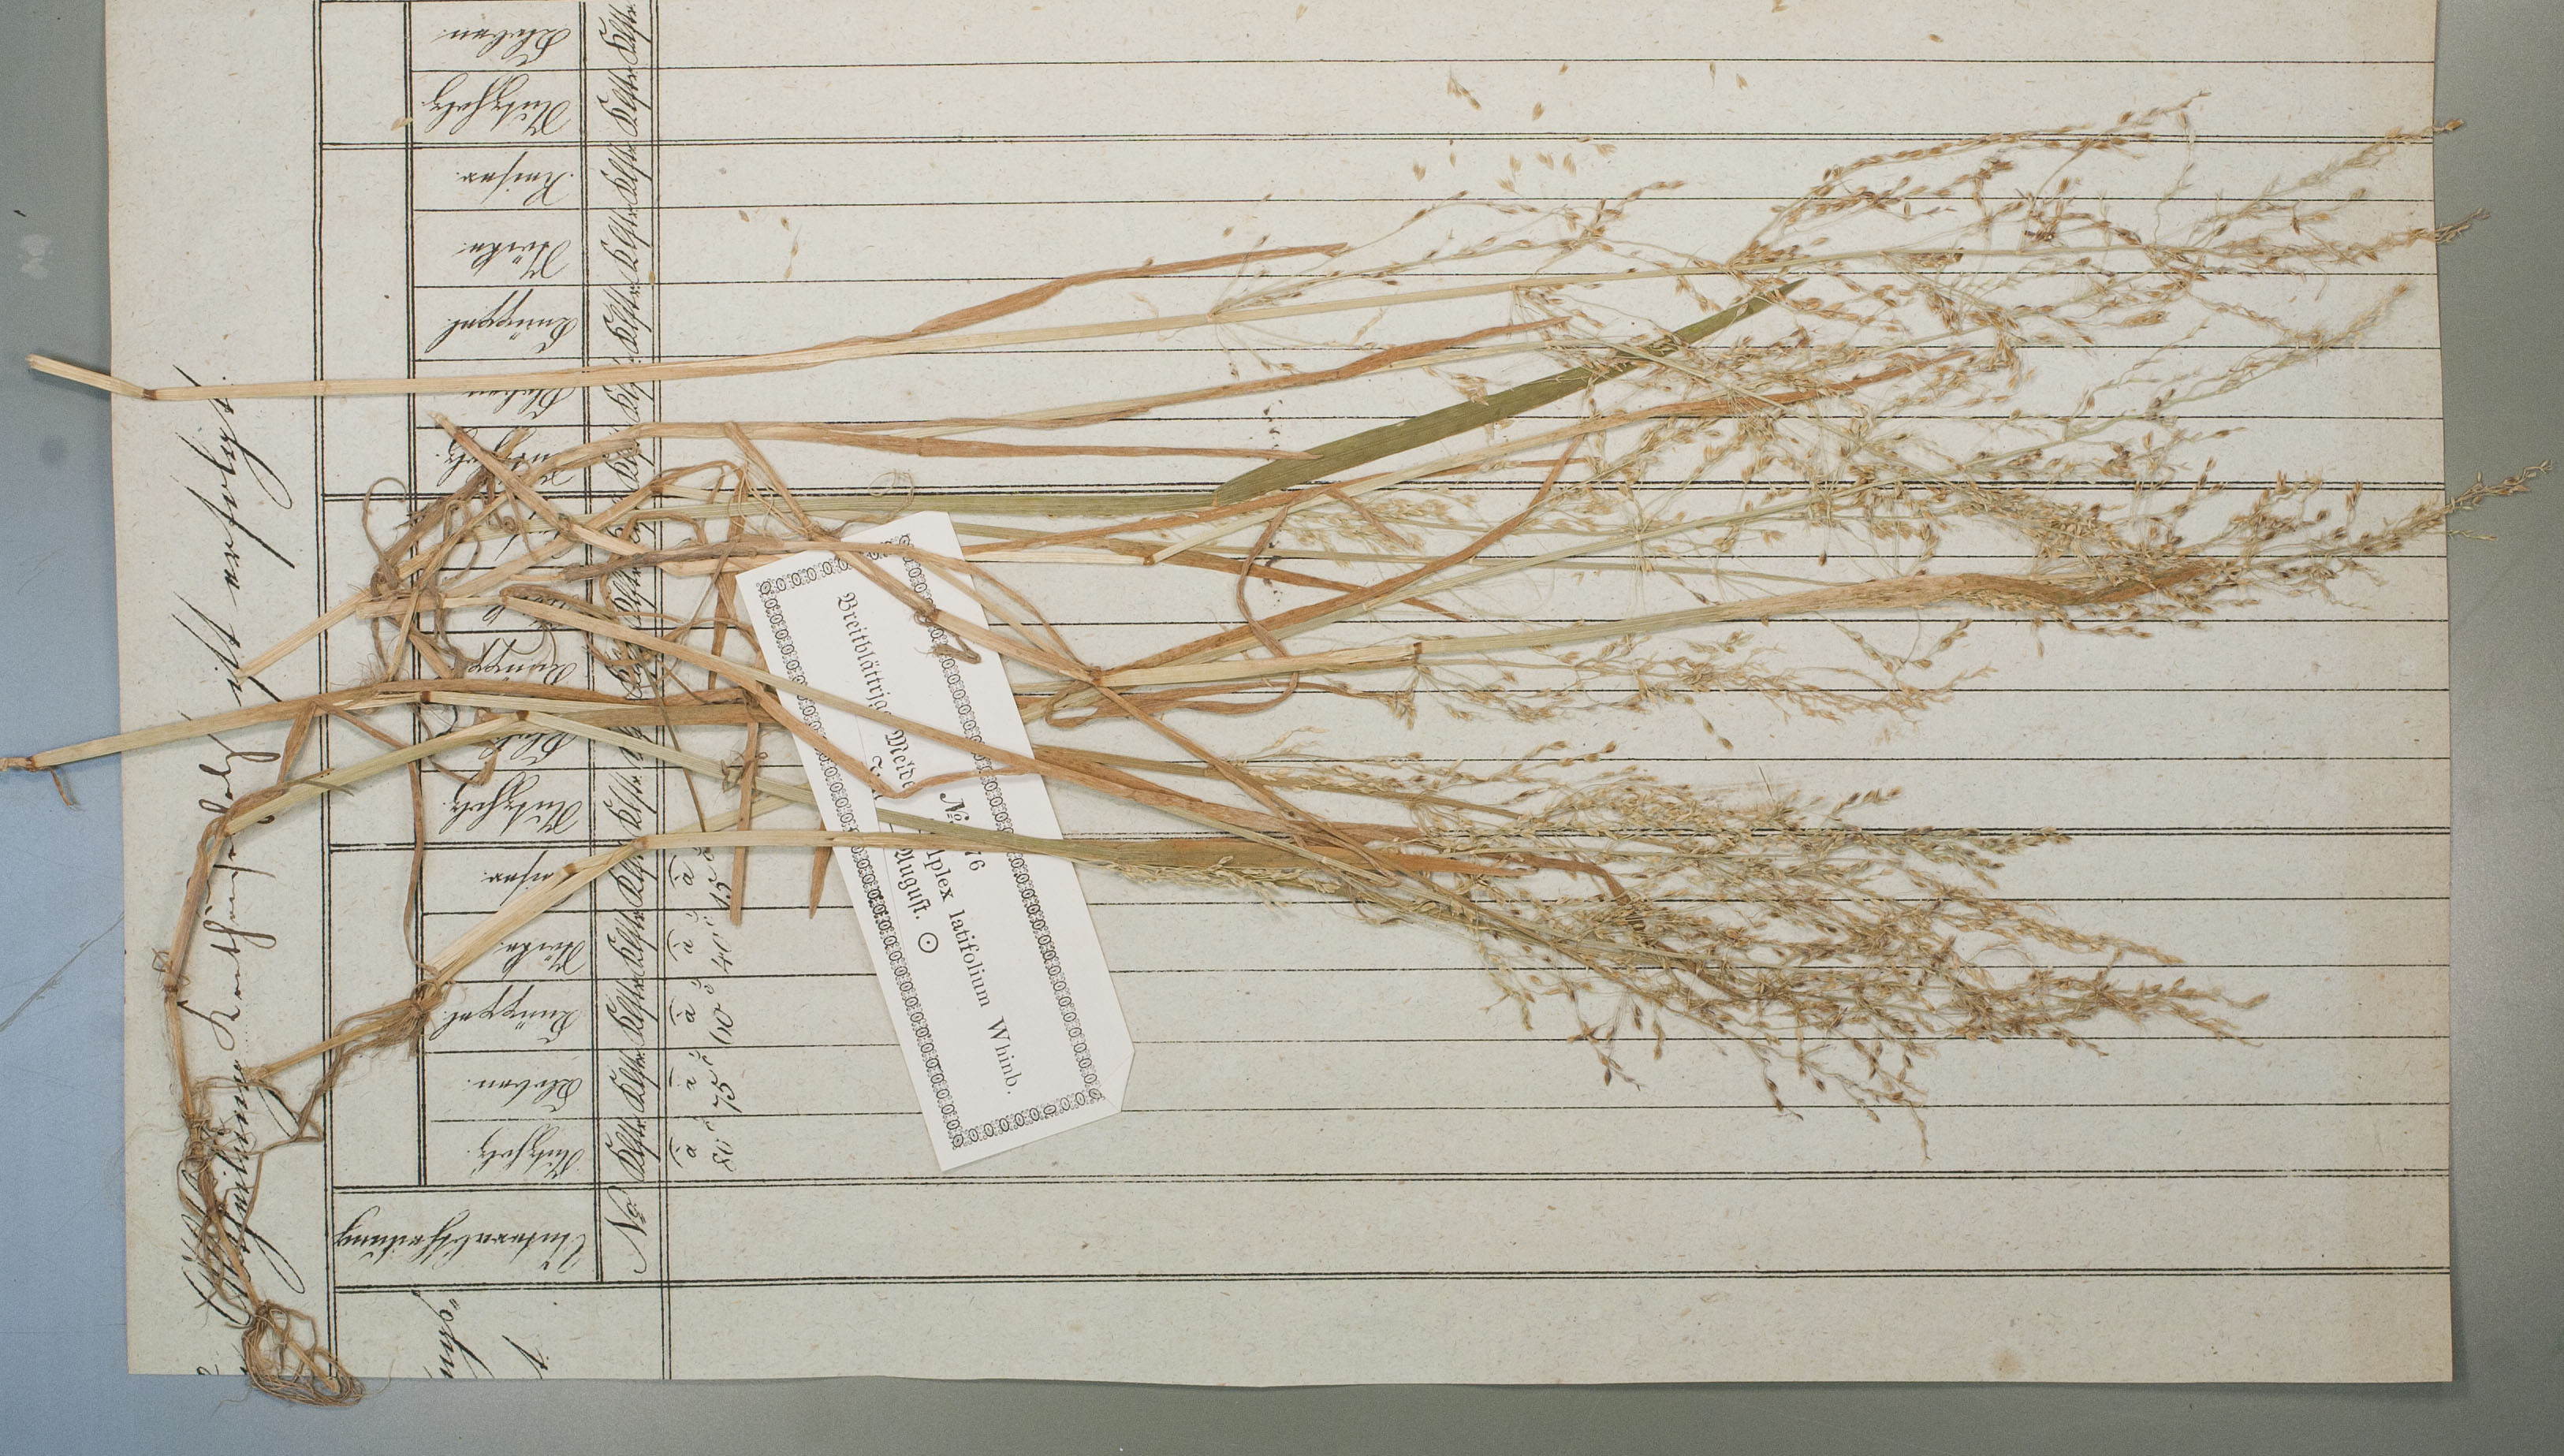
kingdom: Plantae
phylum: Tracheophyta
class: Liliopsida
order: Poales
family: Poaceae
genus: Catabrosa
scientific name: Catabrosa aquatica
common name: Whorl-grass
